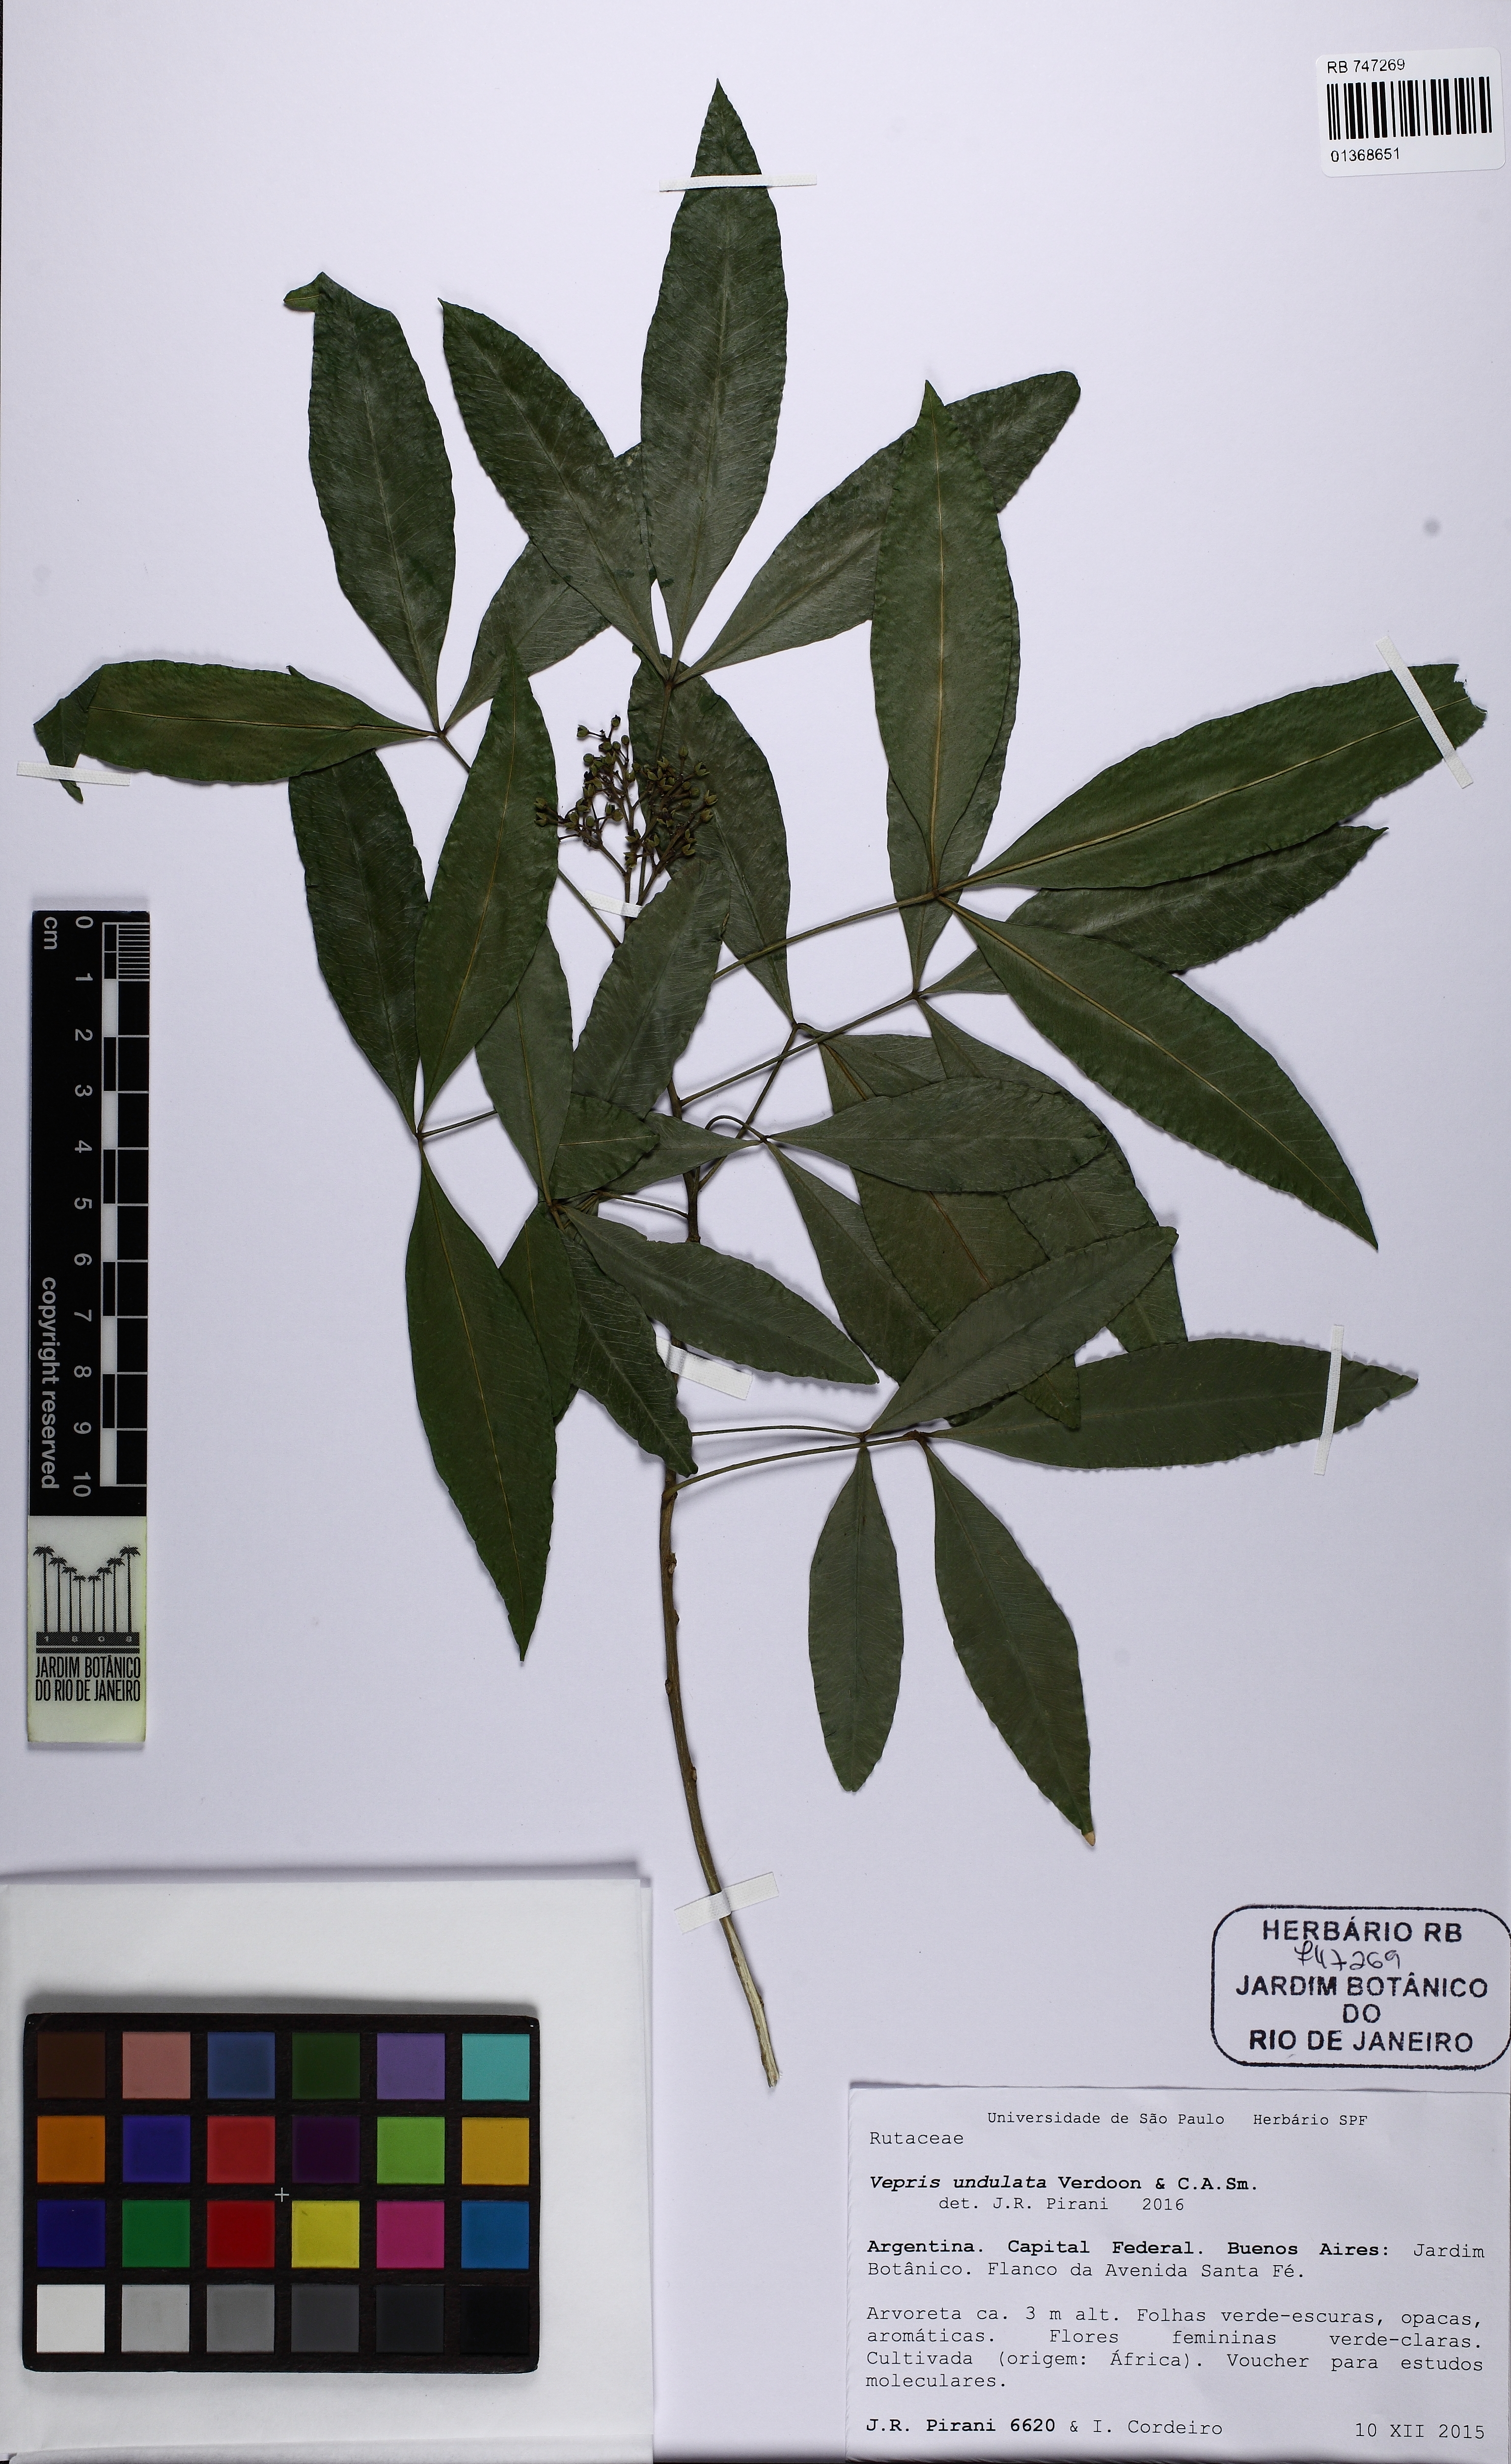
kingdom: Plantae
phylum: Tracheophyta
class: Magnoliopsida
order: Sapindales
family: Rutaceae
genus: Vepris
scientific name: Vepris lanceolata
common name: White ironwood
